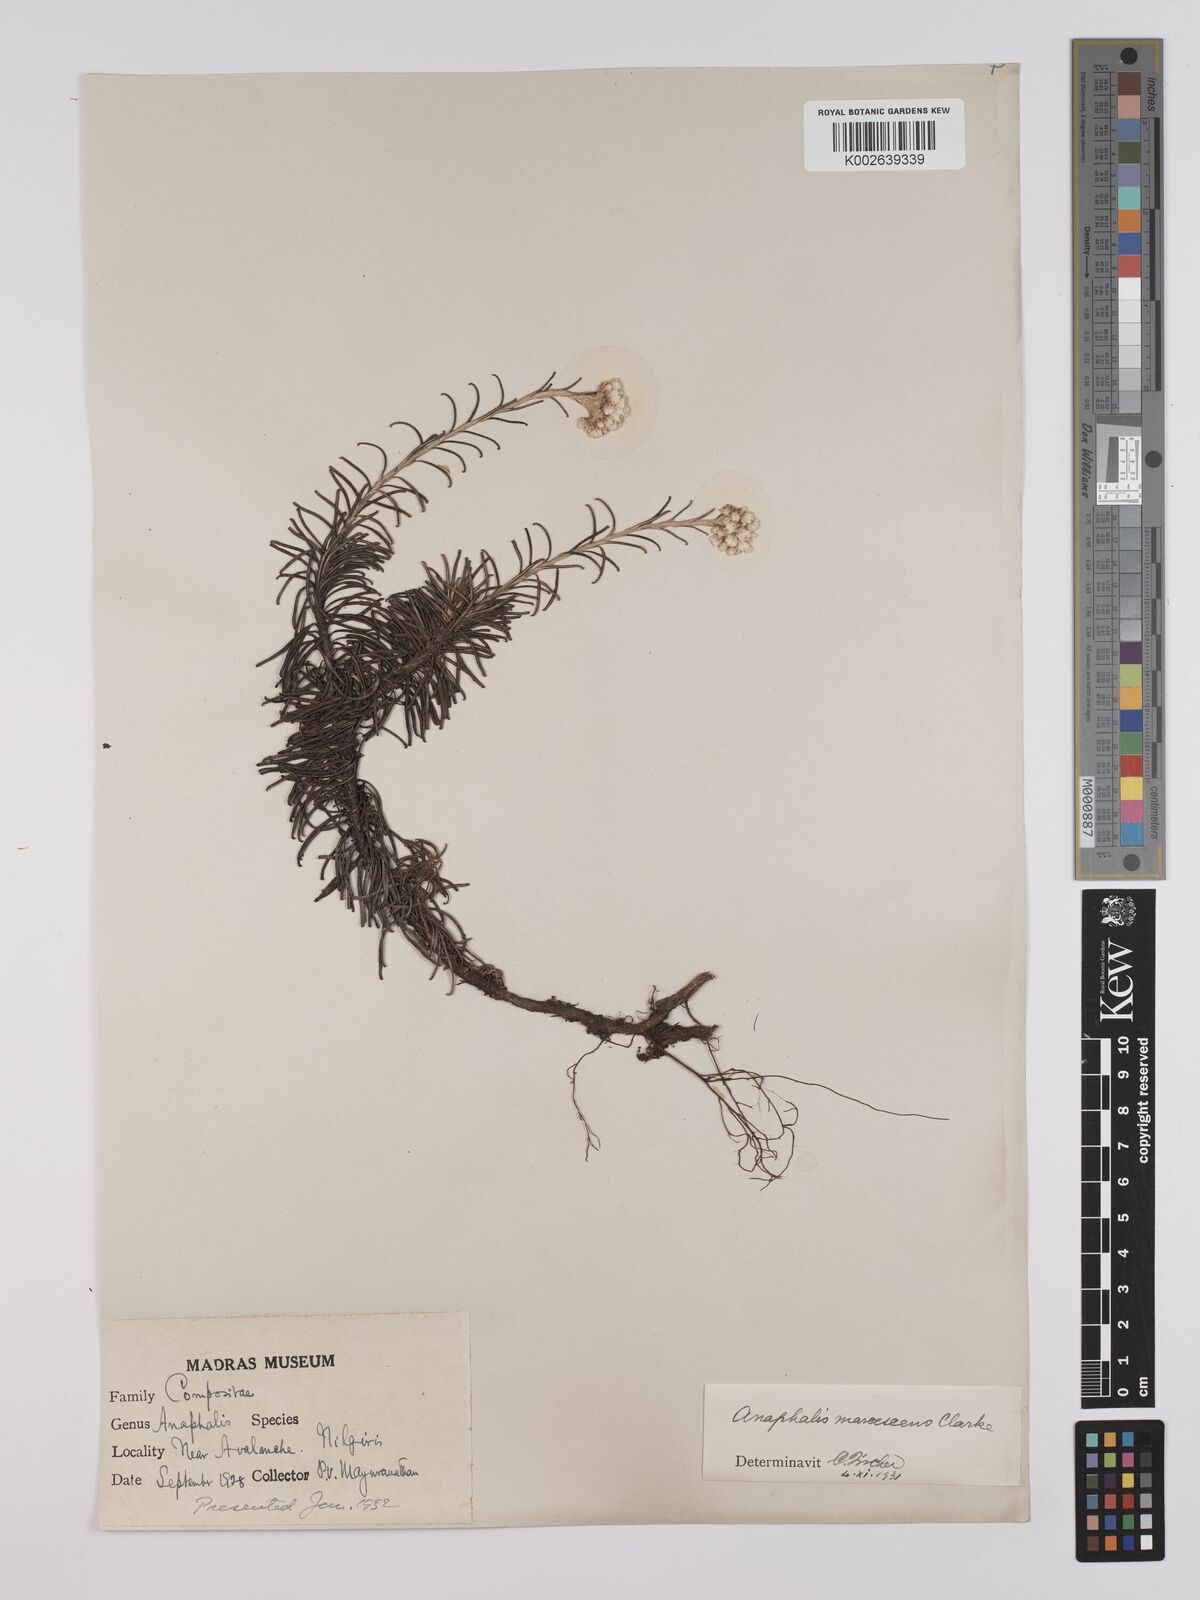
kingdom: Plantae
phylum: Tracheophyta
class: Magnoliopsida
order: Asterales
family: Asteraceae
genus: Anaphalis
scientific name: Anaphalis marcescens
